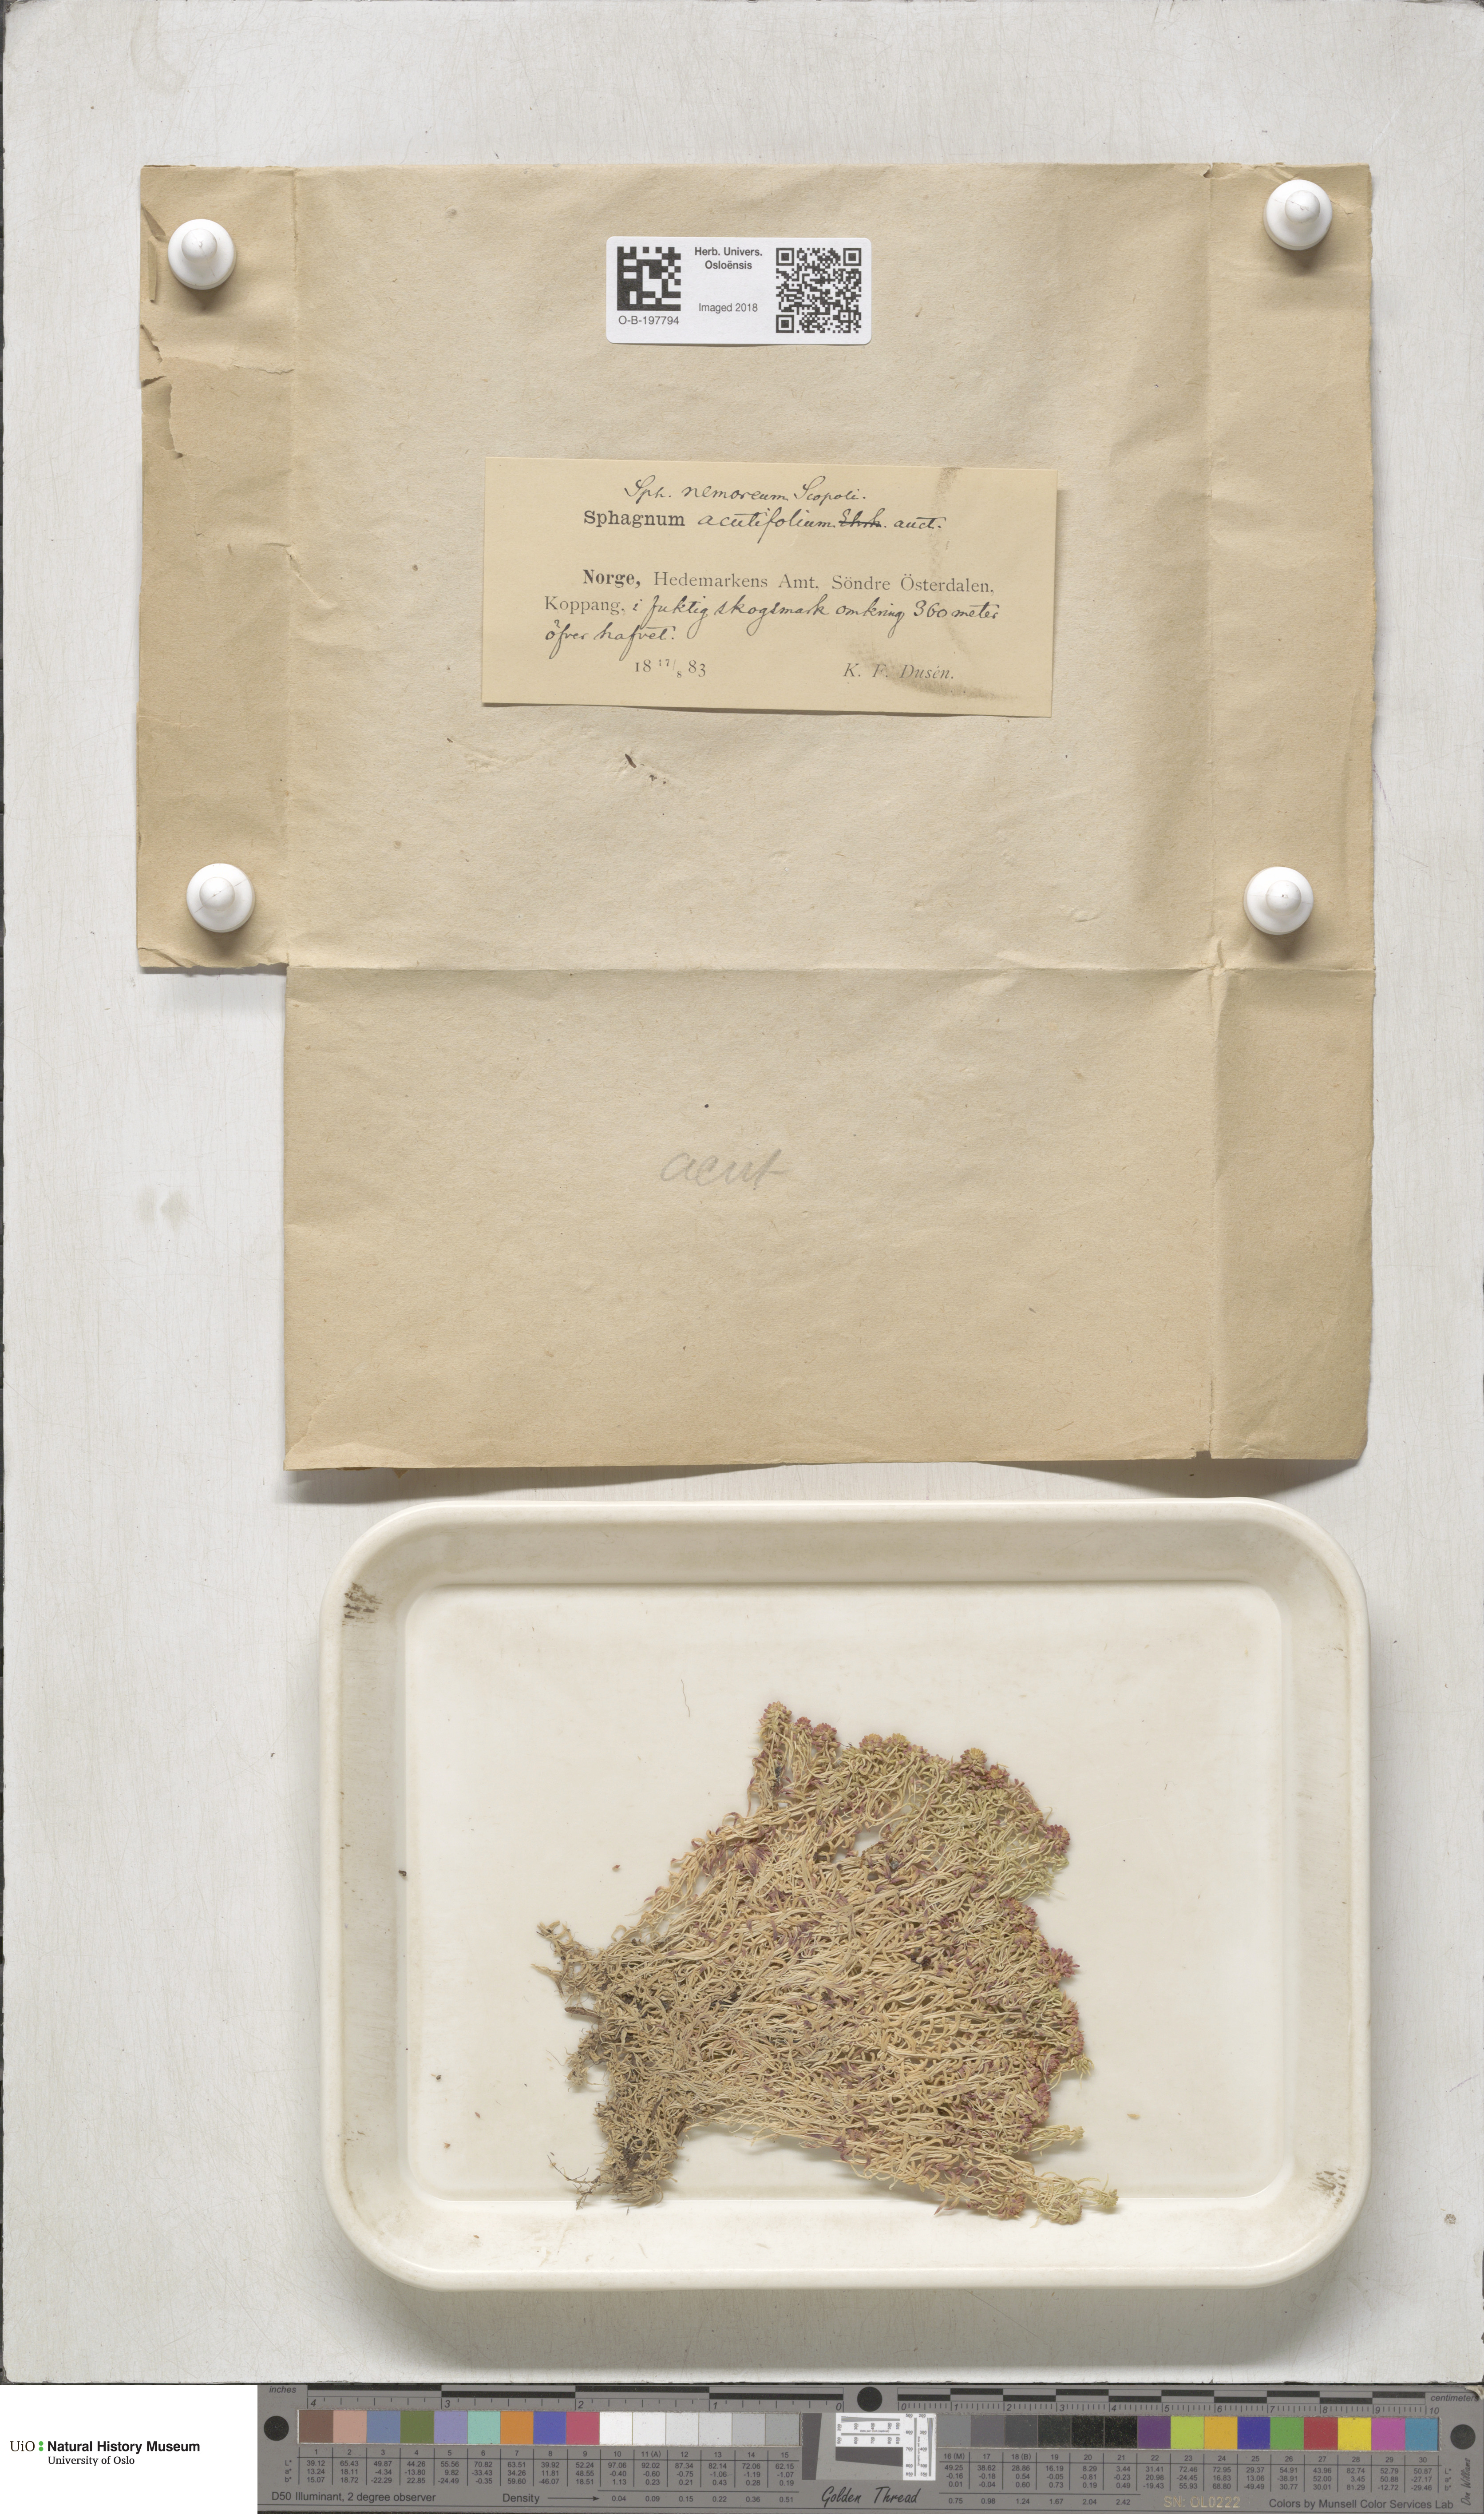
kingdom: Plantae
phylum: Bryophyta
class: Sphagnopsida
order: Sphagnales
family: Sphagnaceae
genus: Sphagnum
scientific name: Sphagnum capillifolium
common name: Small red peat moss
